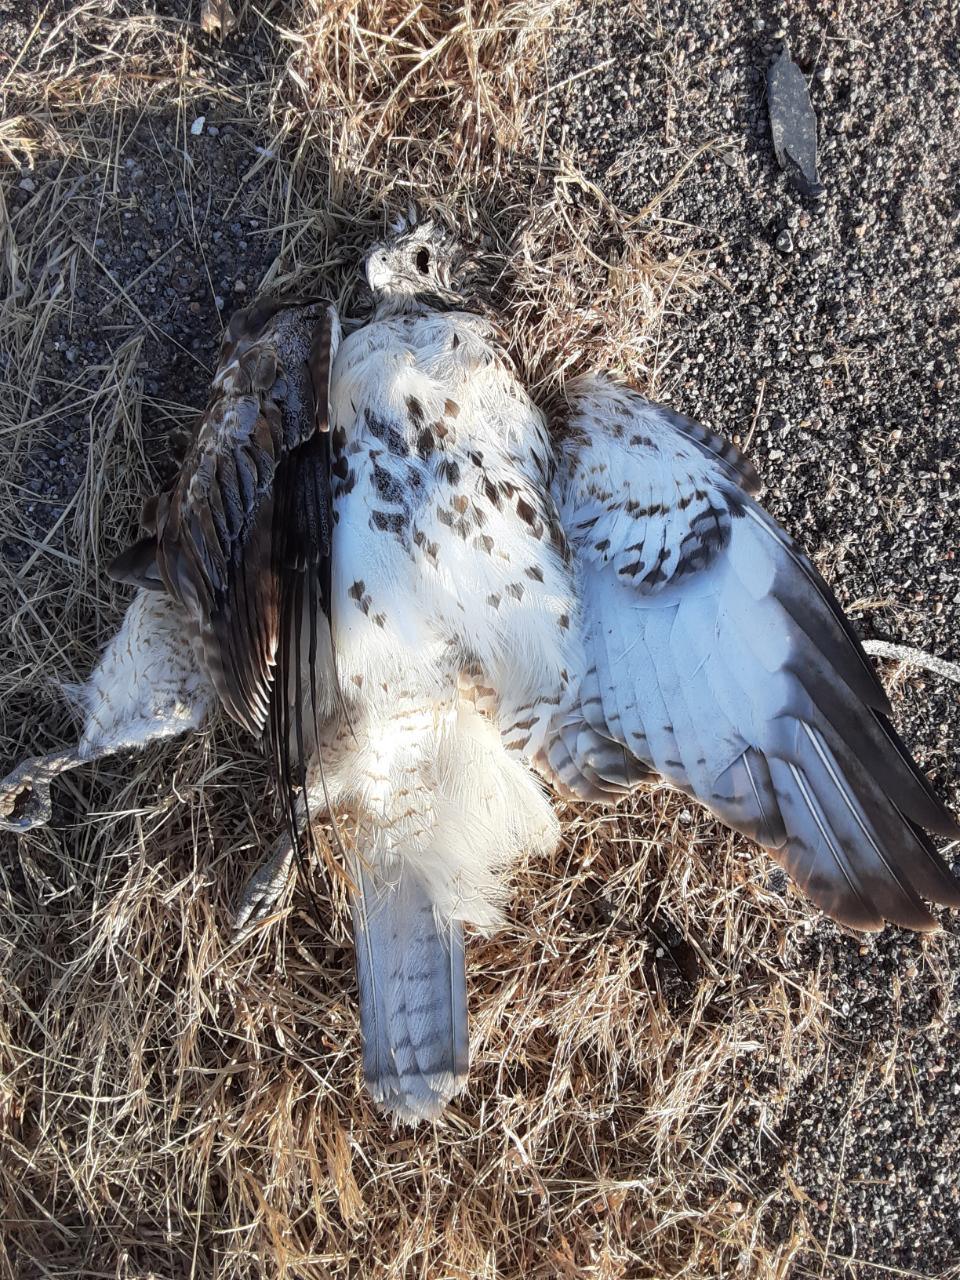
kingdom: Animalia
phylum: Chordata
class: Aves
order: Accipitriformes
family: Accipitridae
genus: Buteo
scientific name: Buteo jamaicensis
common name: Red-tailed hawk
